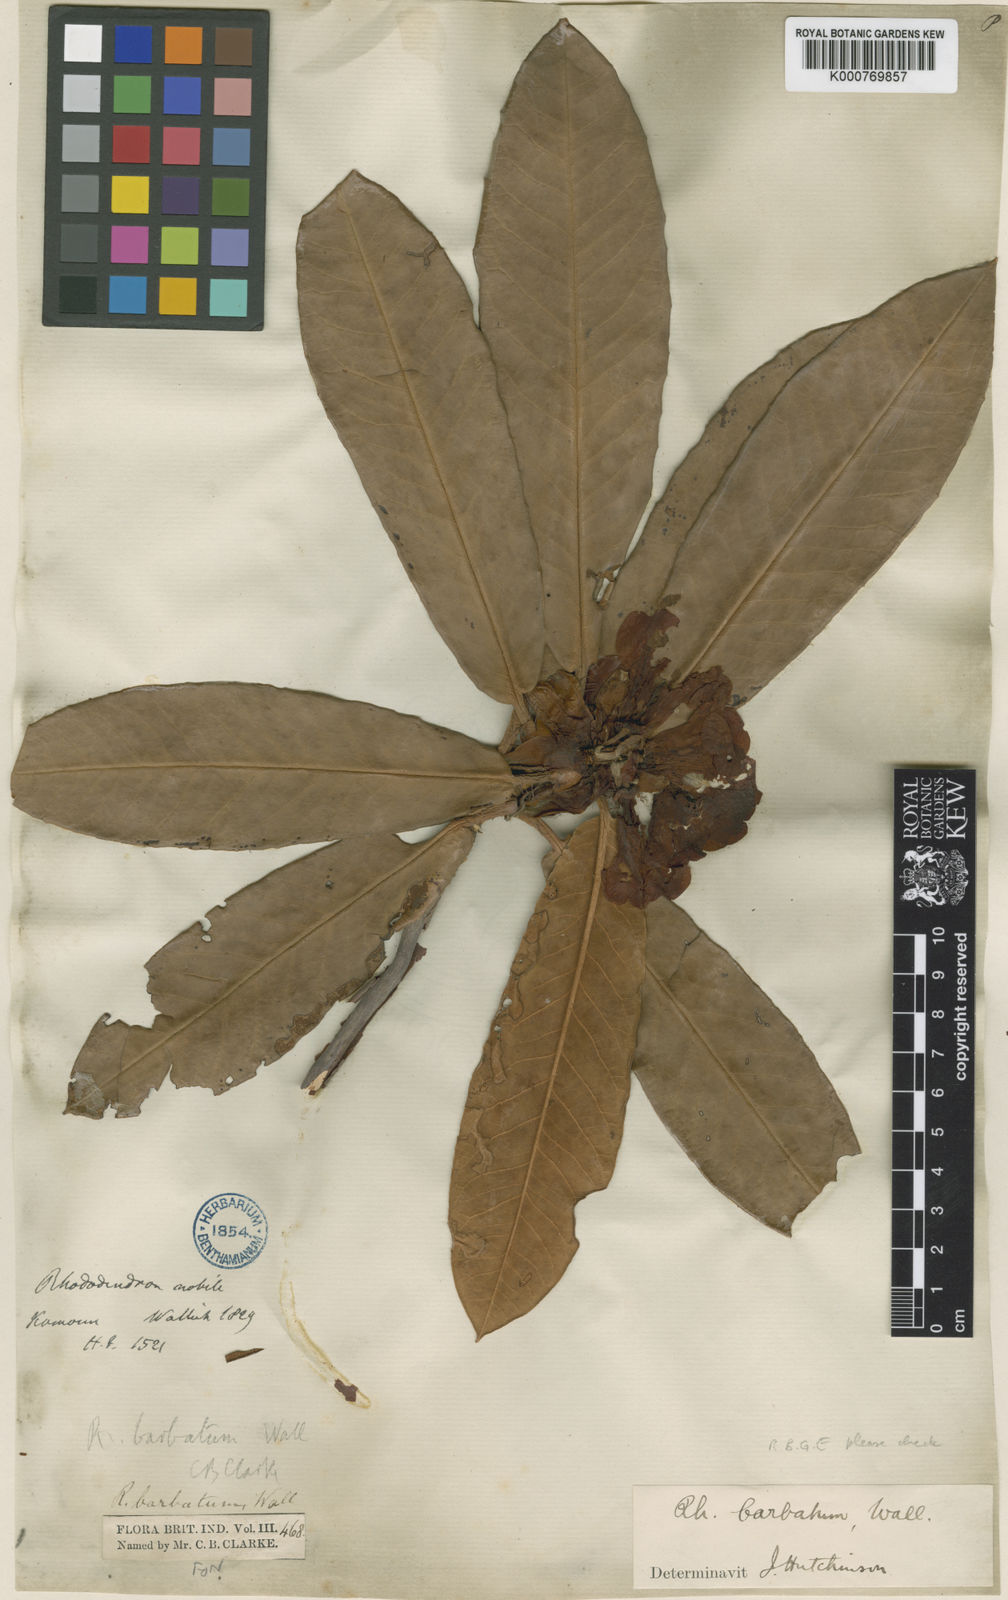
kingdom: Plantae
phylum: Tracheophyta
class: Magnoliopsida
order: Ericales
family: Ericaceae
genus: Rhododendron
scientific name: Rhododendron
